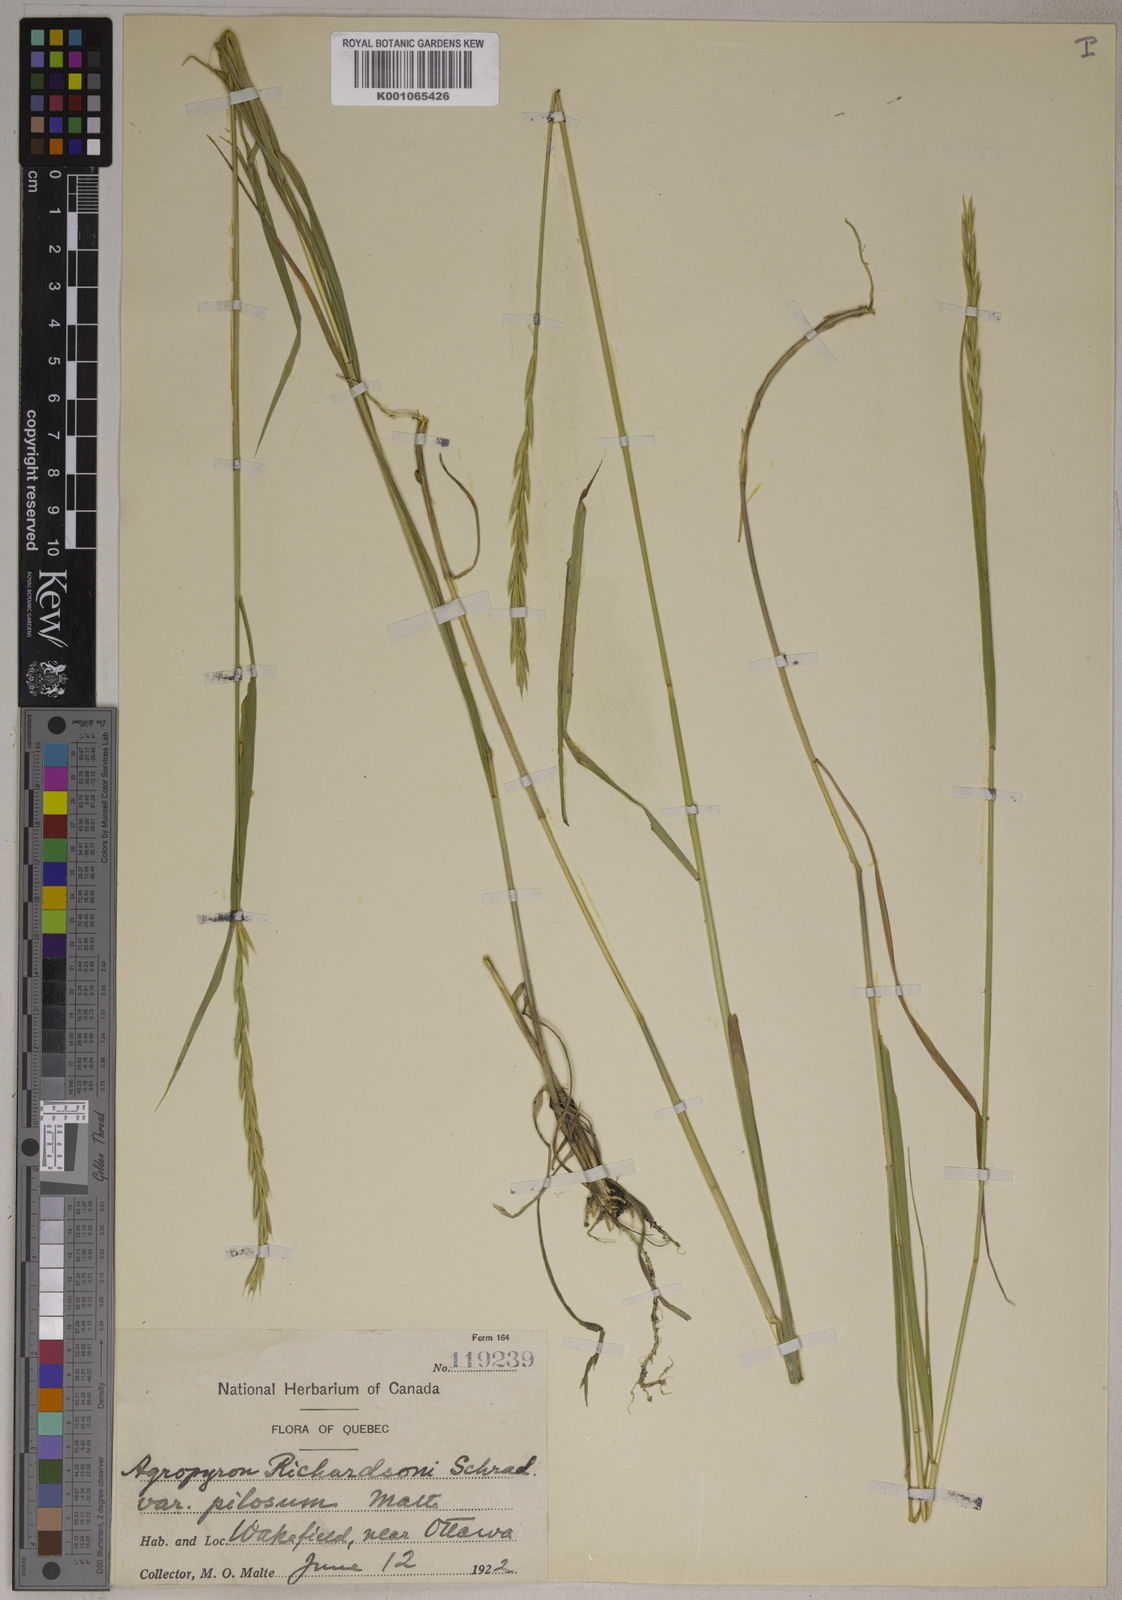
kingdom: Plantae
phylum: Tracheophyta
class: Liliopsida
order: Poales
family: Poaceae
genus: Elymus
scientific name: Elymus
